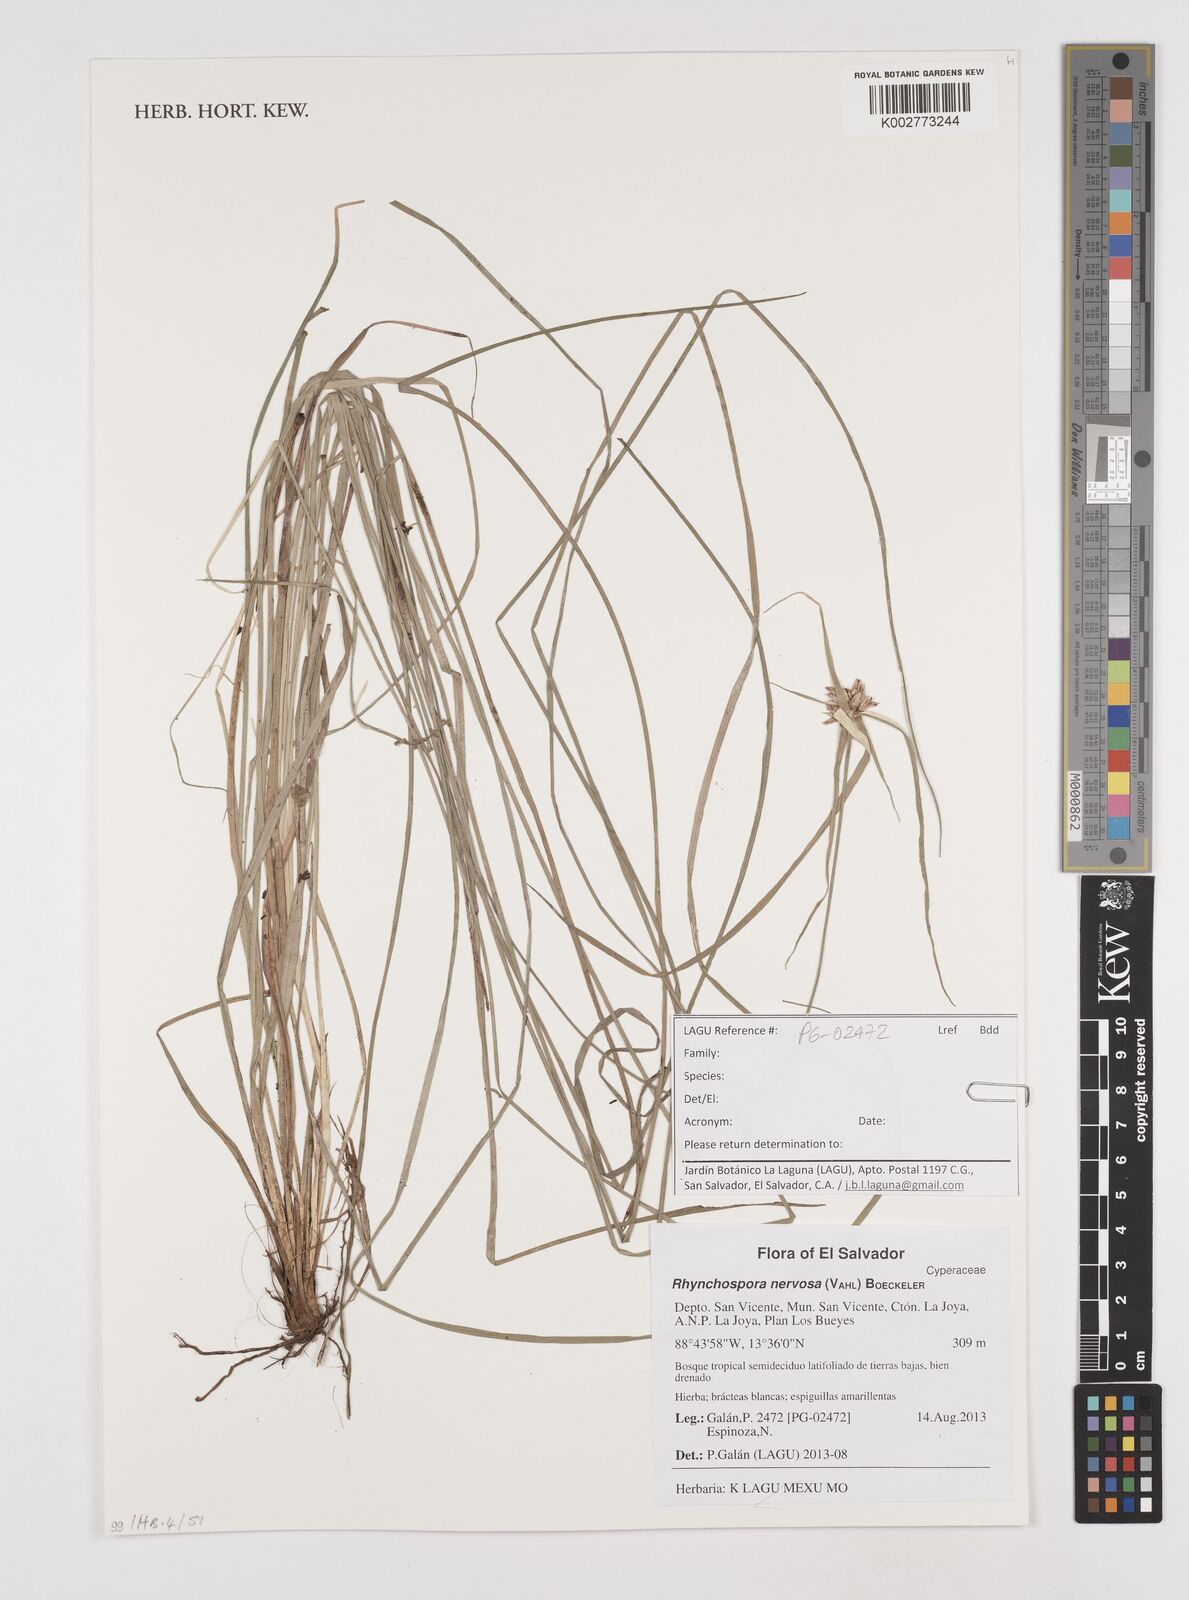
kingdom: Plantae
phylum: Tracheophyta
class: Liliopsida
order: Poales
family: Cyperaceae
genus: Rhynchospora
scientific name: Rhynchospora barbata
